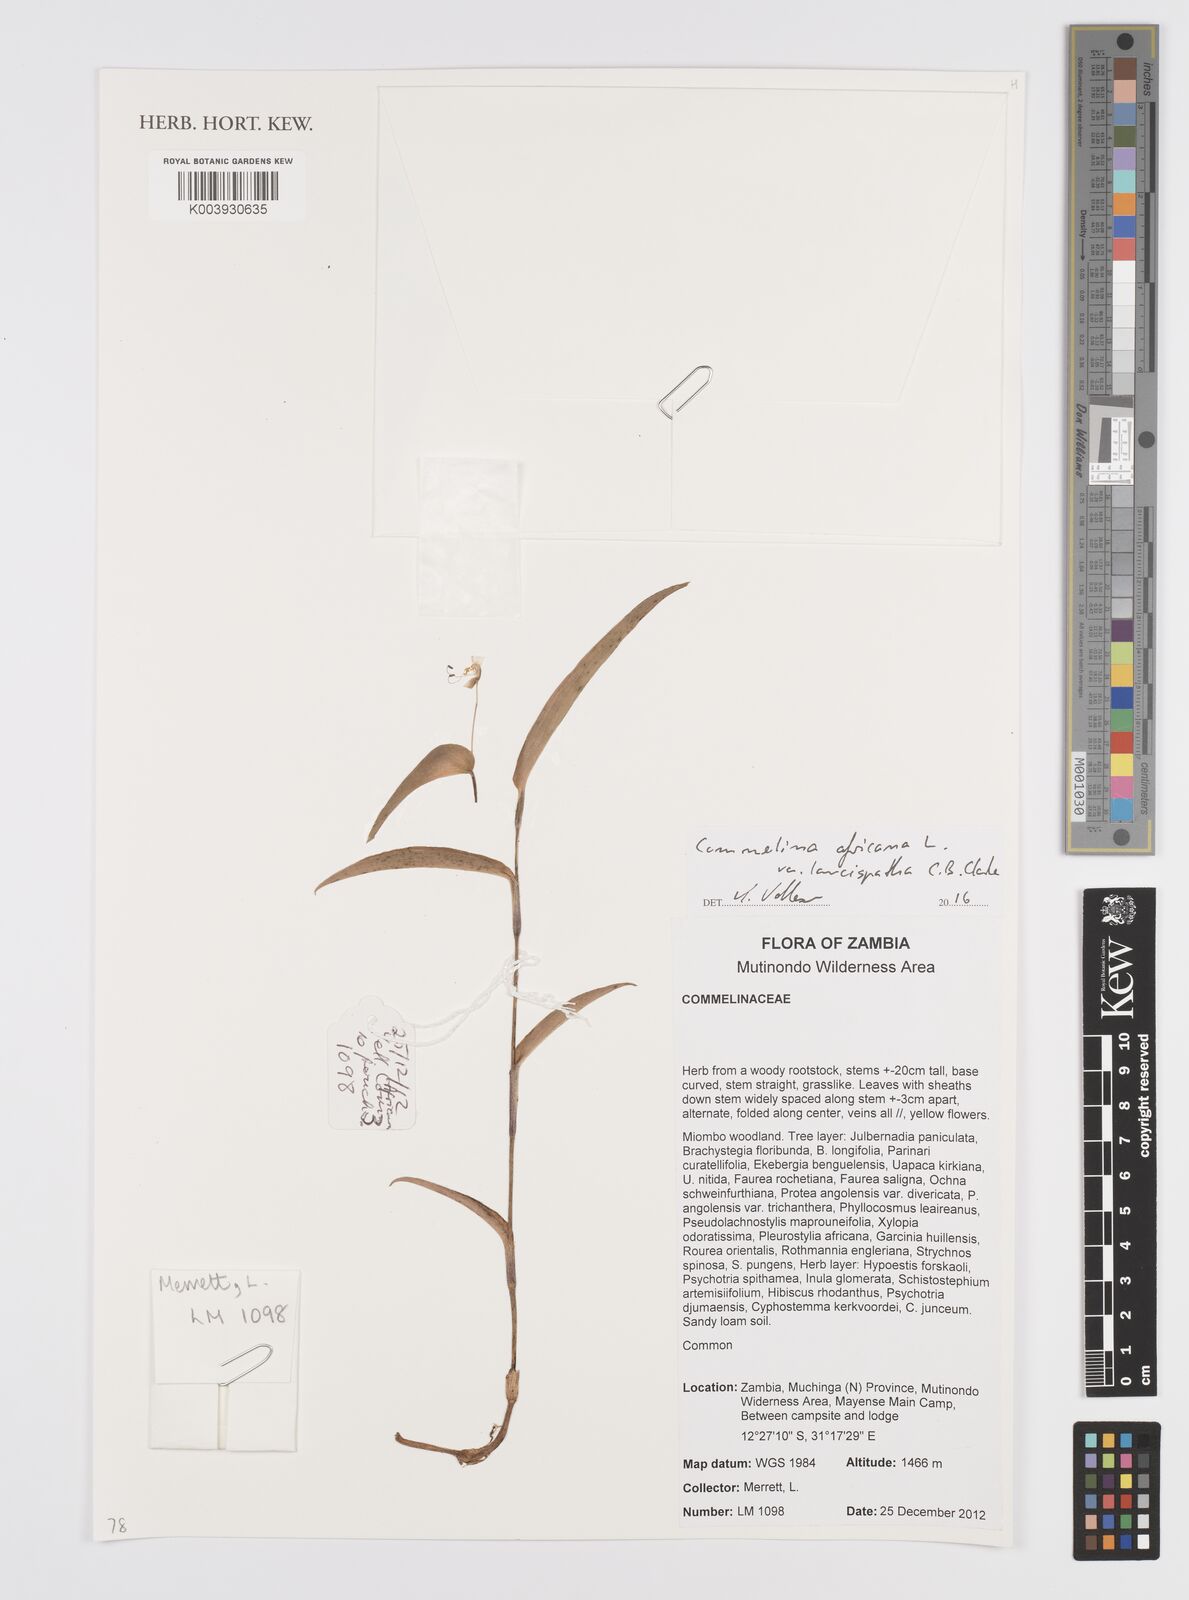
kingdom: Plantae
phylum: Tracheophyta
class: Liliopsida
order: Commelinales
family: Commelinaceae
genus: Commelina
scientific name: Commelina africana
